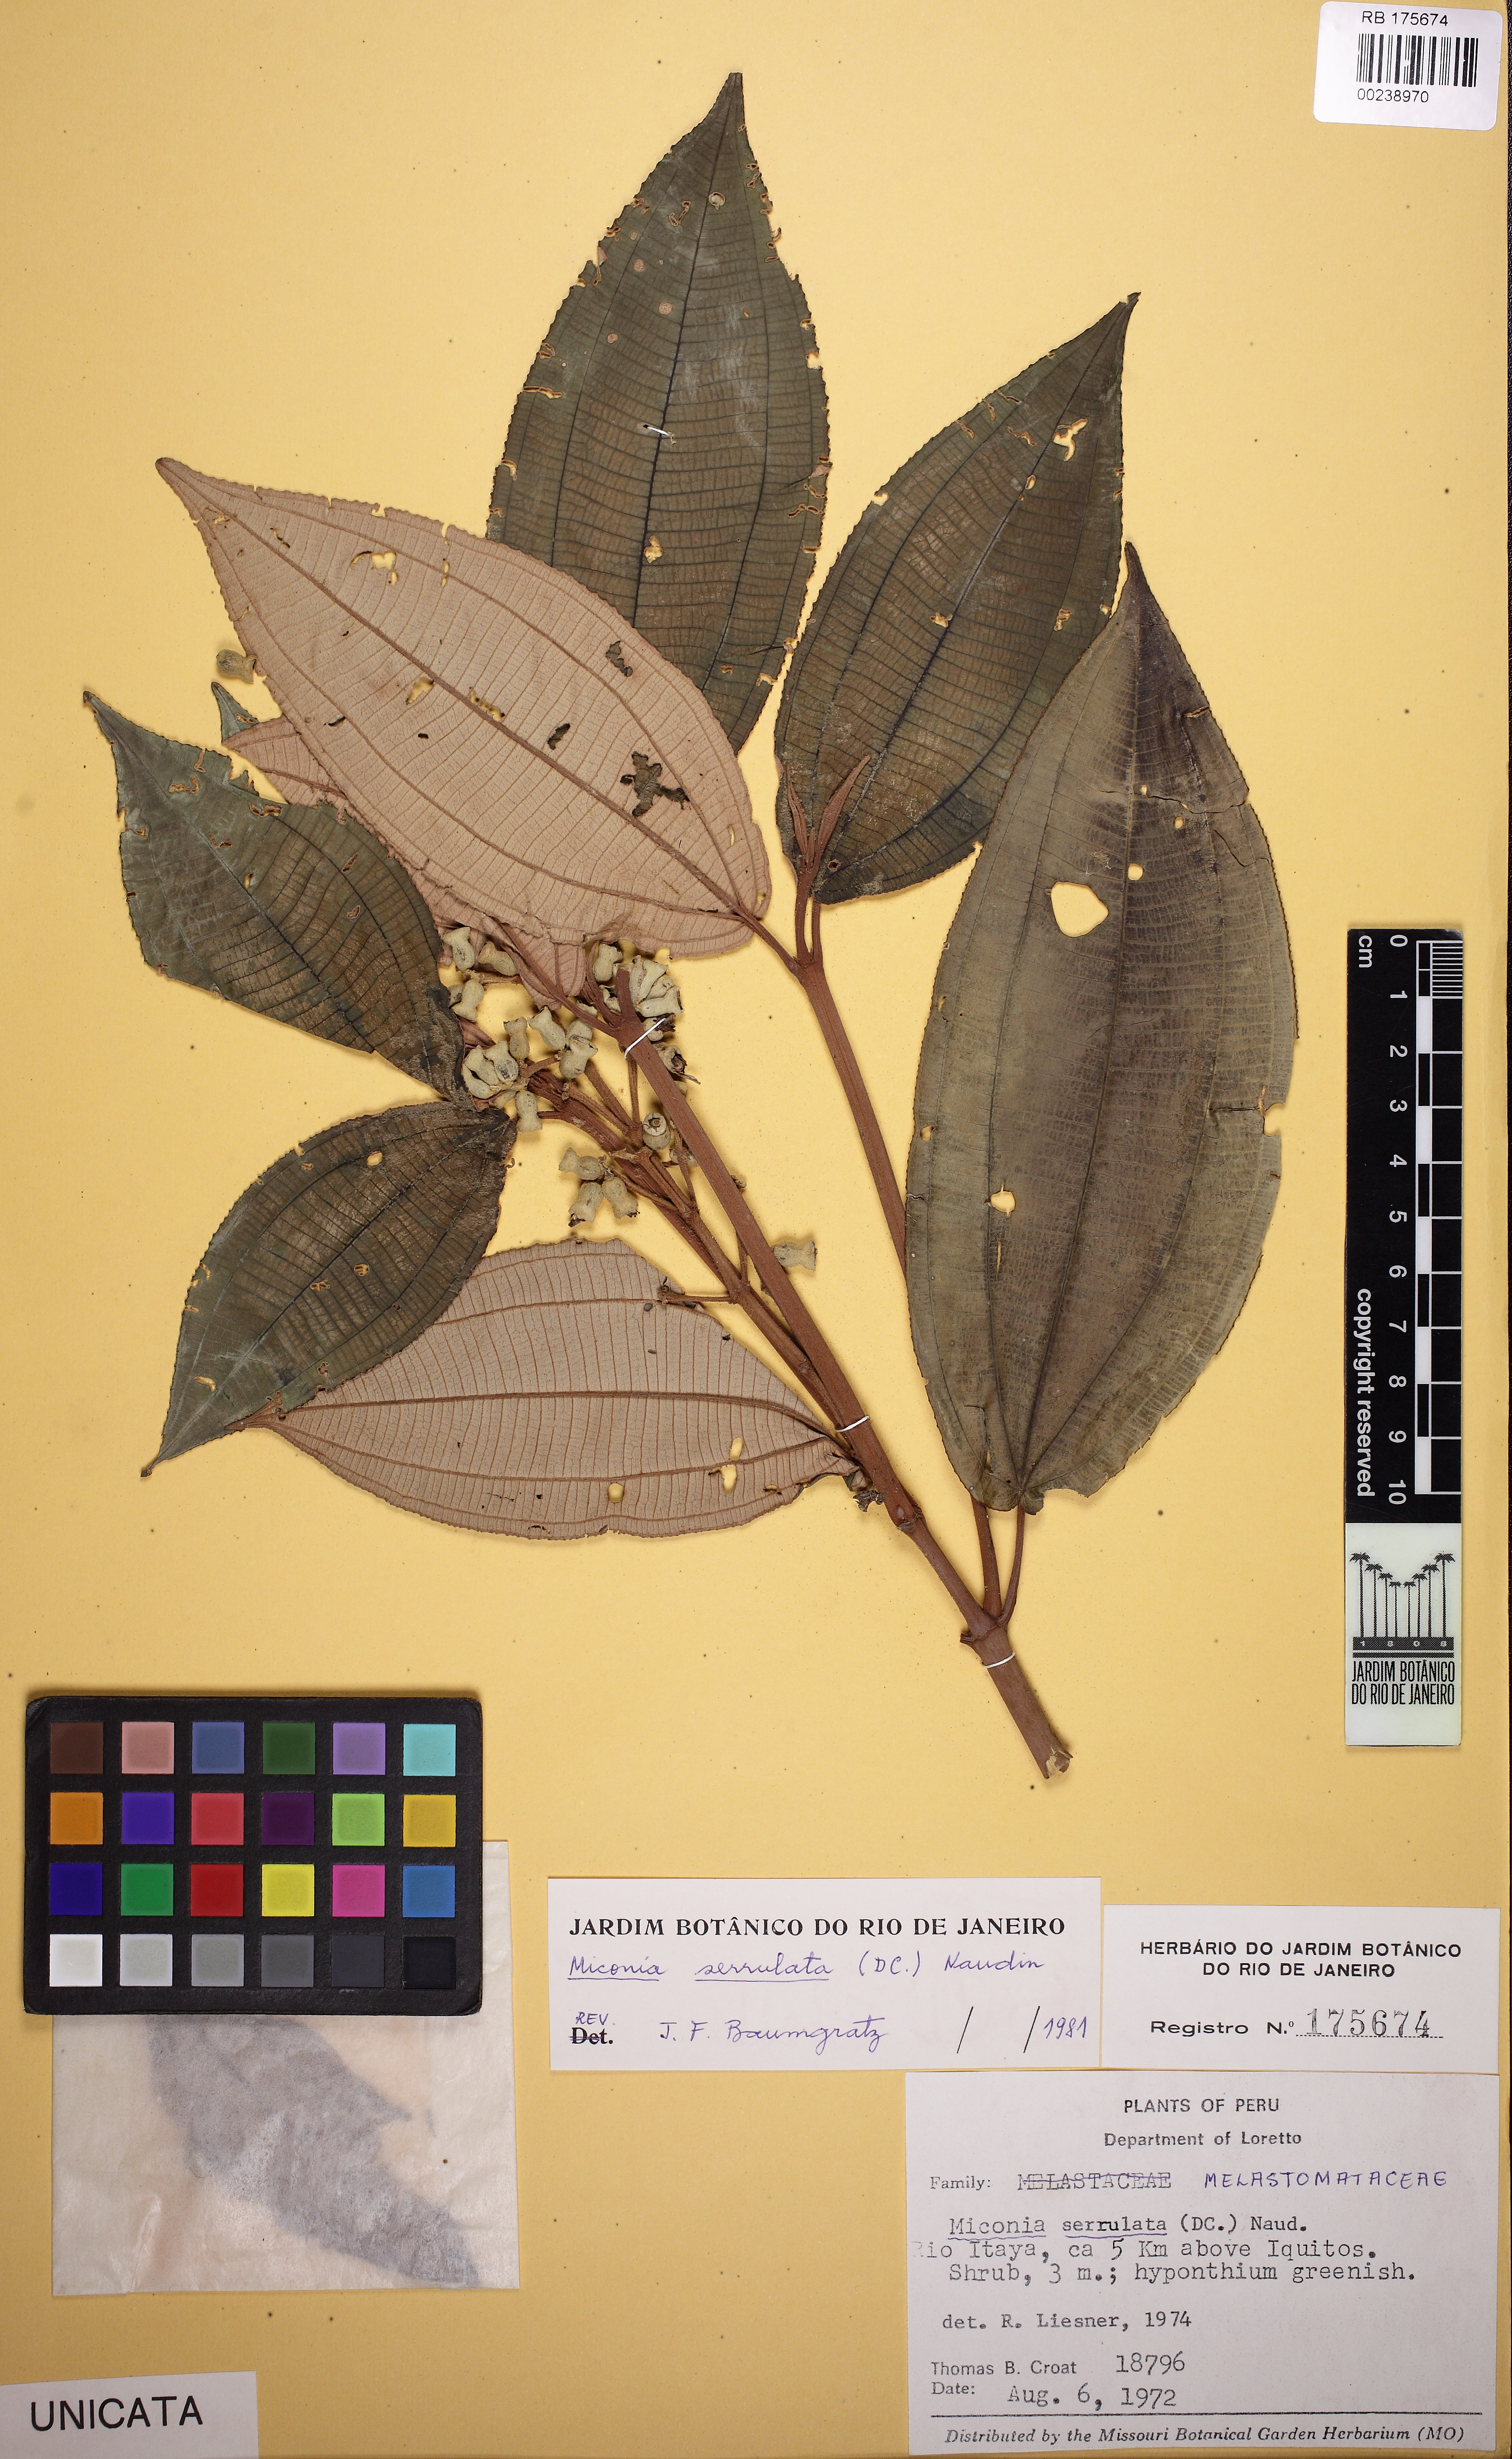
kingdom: Plantae
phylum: Tracheophyta
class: Magnoliopsida
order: Myrtales
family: Melastomataceae
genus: Miconia
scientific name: Miconia serrulata
